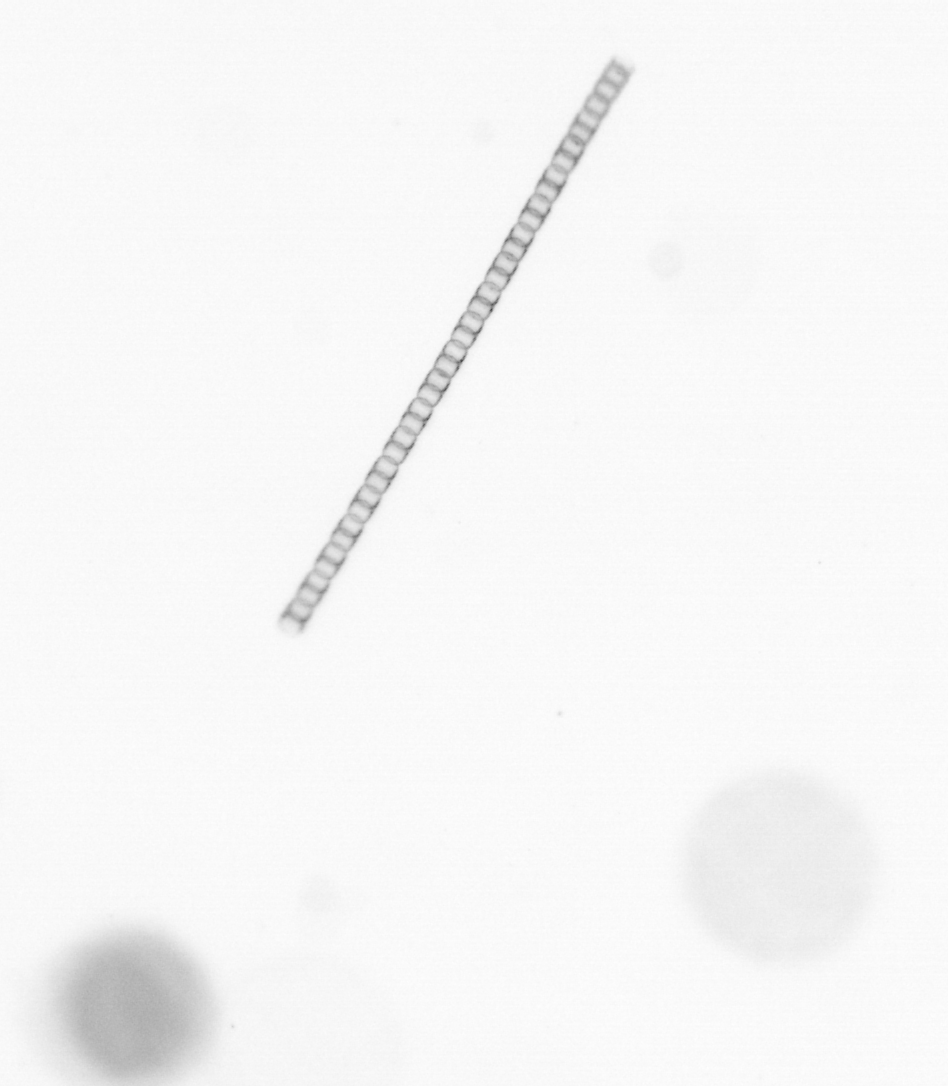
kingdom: Chromista
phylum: Ochrophyta
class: Bacillariophyceae
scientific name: Bacillariophyceae
